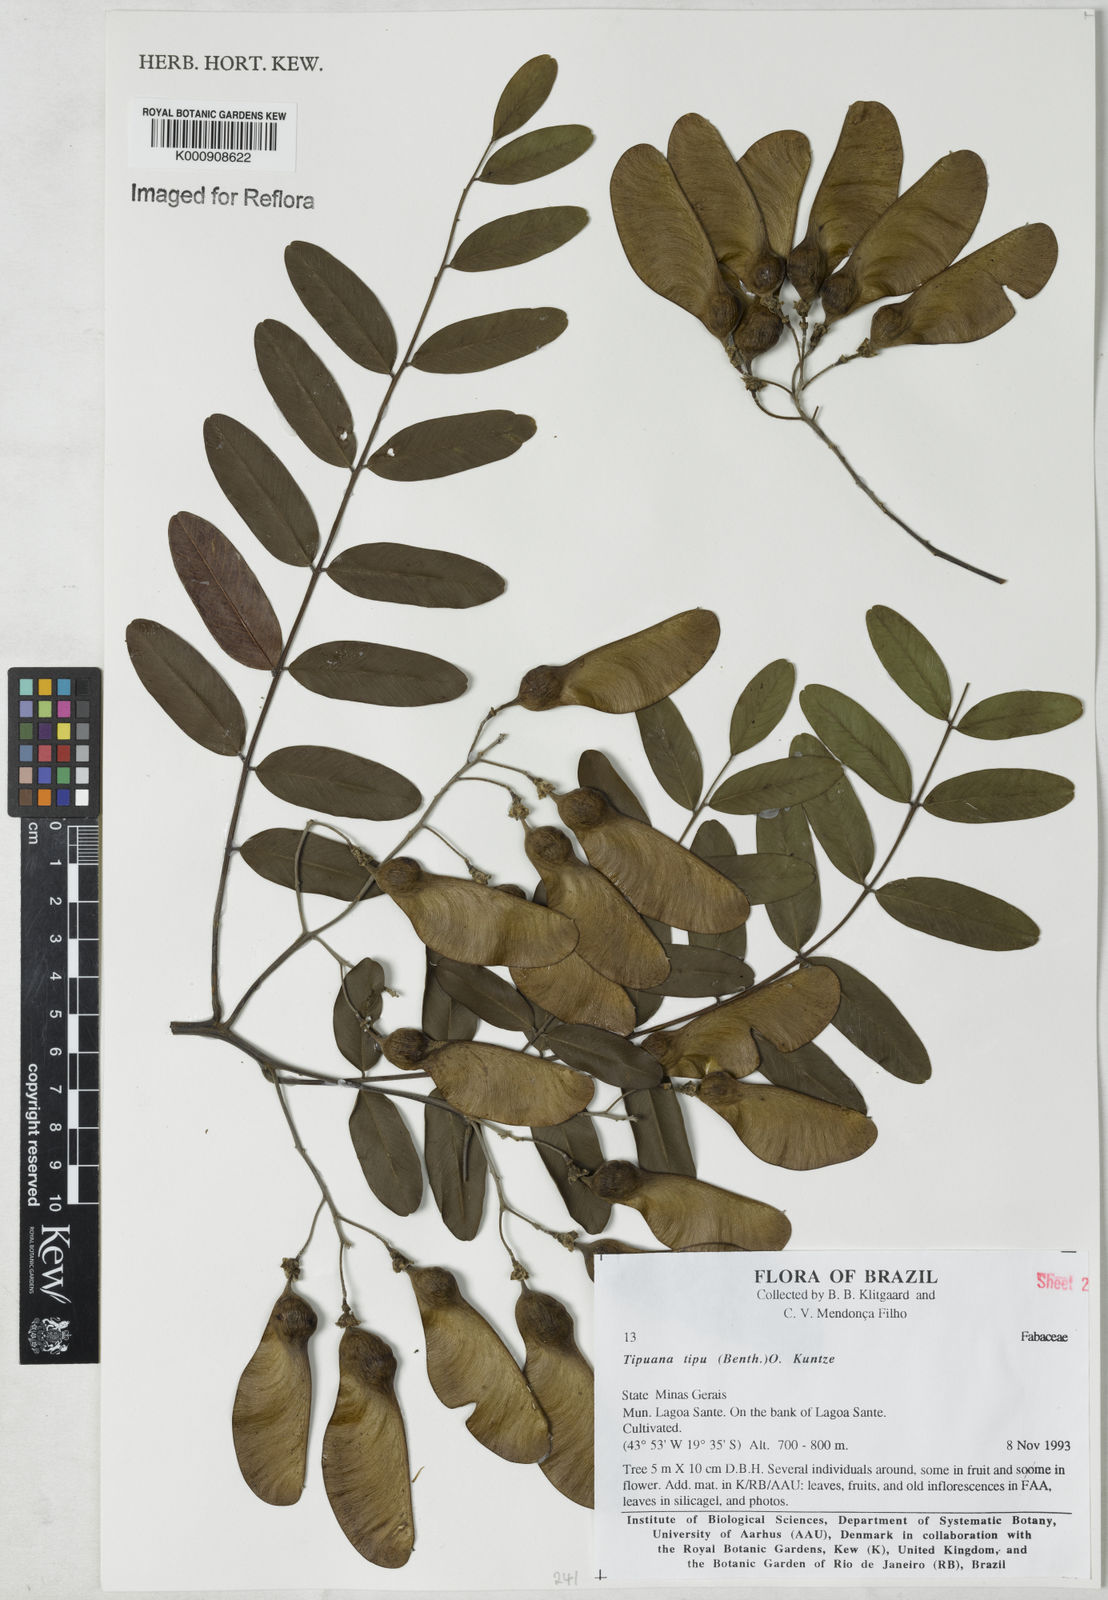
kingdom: Plantae
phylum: Tracheophyta
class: Magnoliopsida
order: Fabales
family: Fabaceae
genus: Tipuana
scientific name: Tipuana tipu
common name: Tiputree
